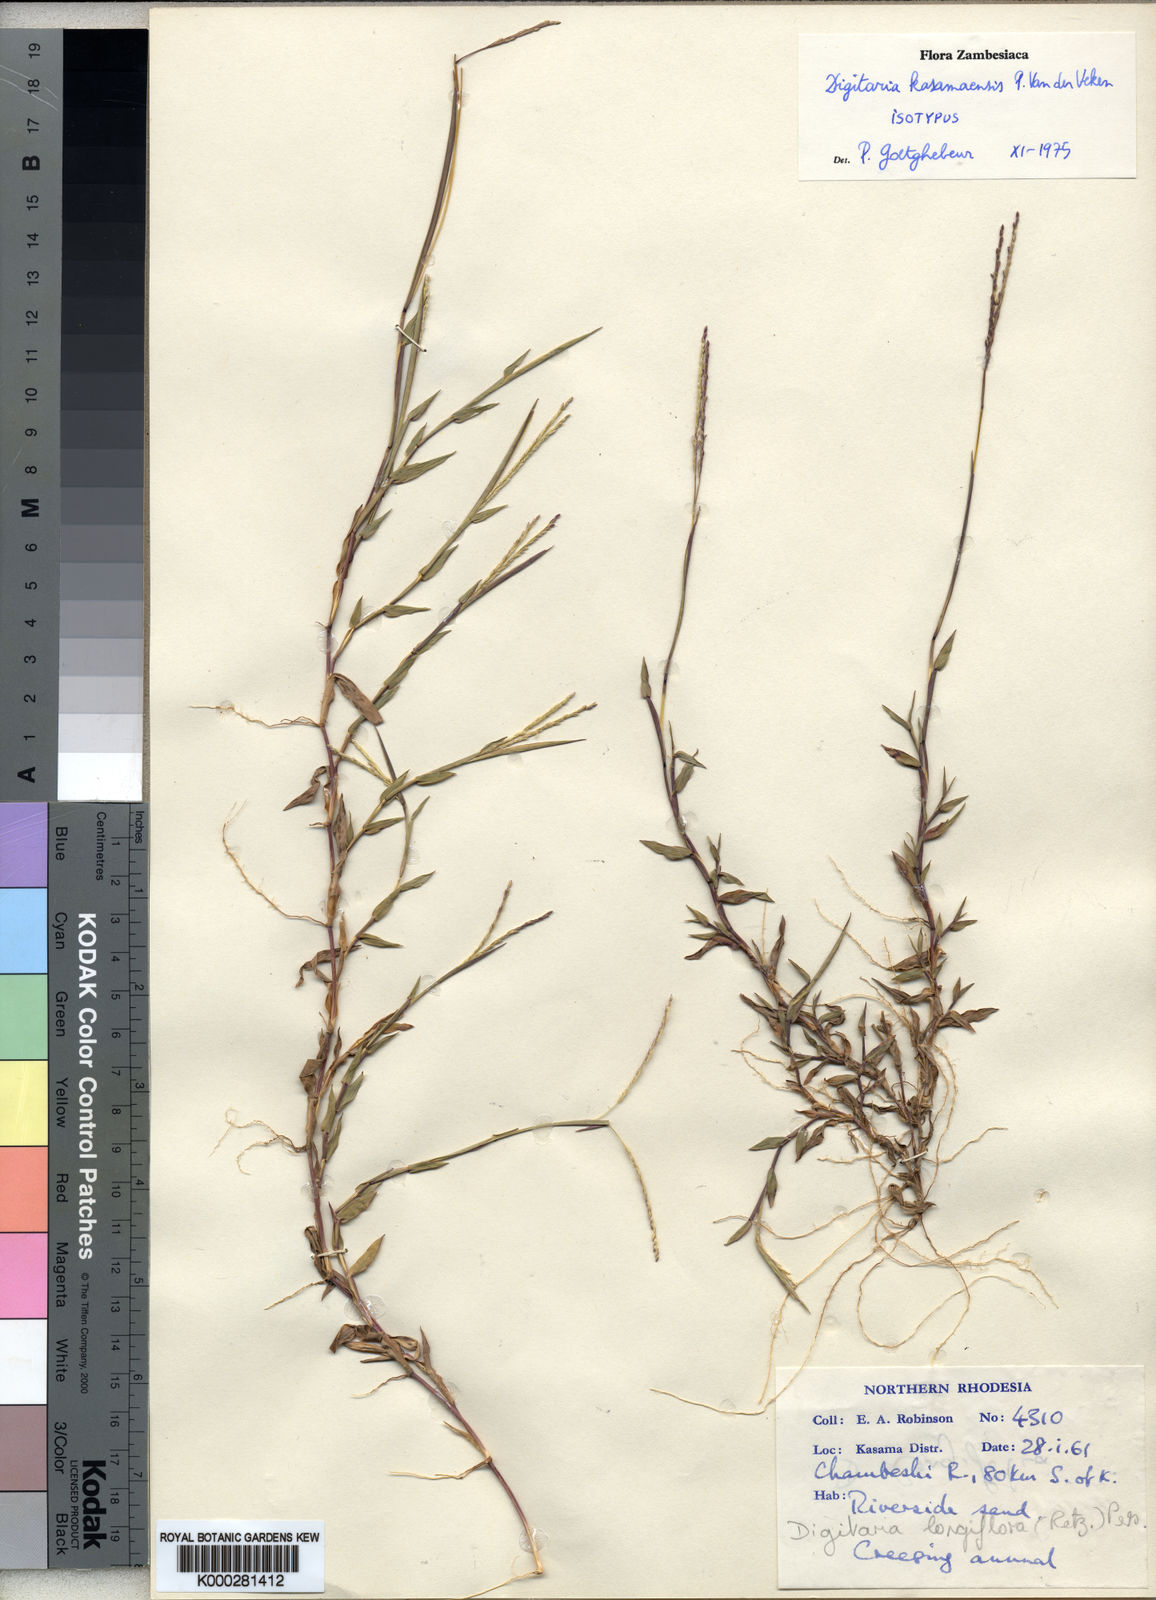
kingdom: Plantae
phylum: Tracheophyta
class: Liliopsida
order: Poales
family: Poaceae
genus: Digitaria
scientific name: Digitaria
